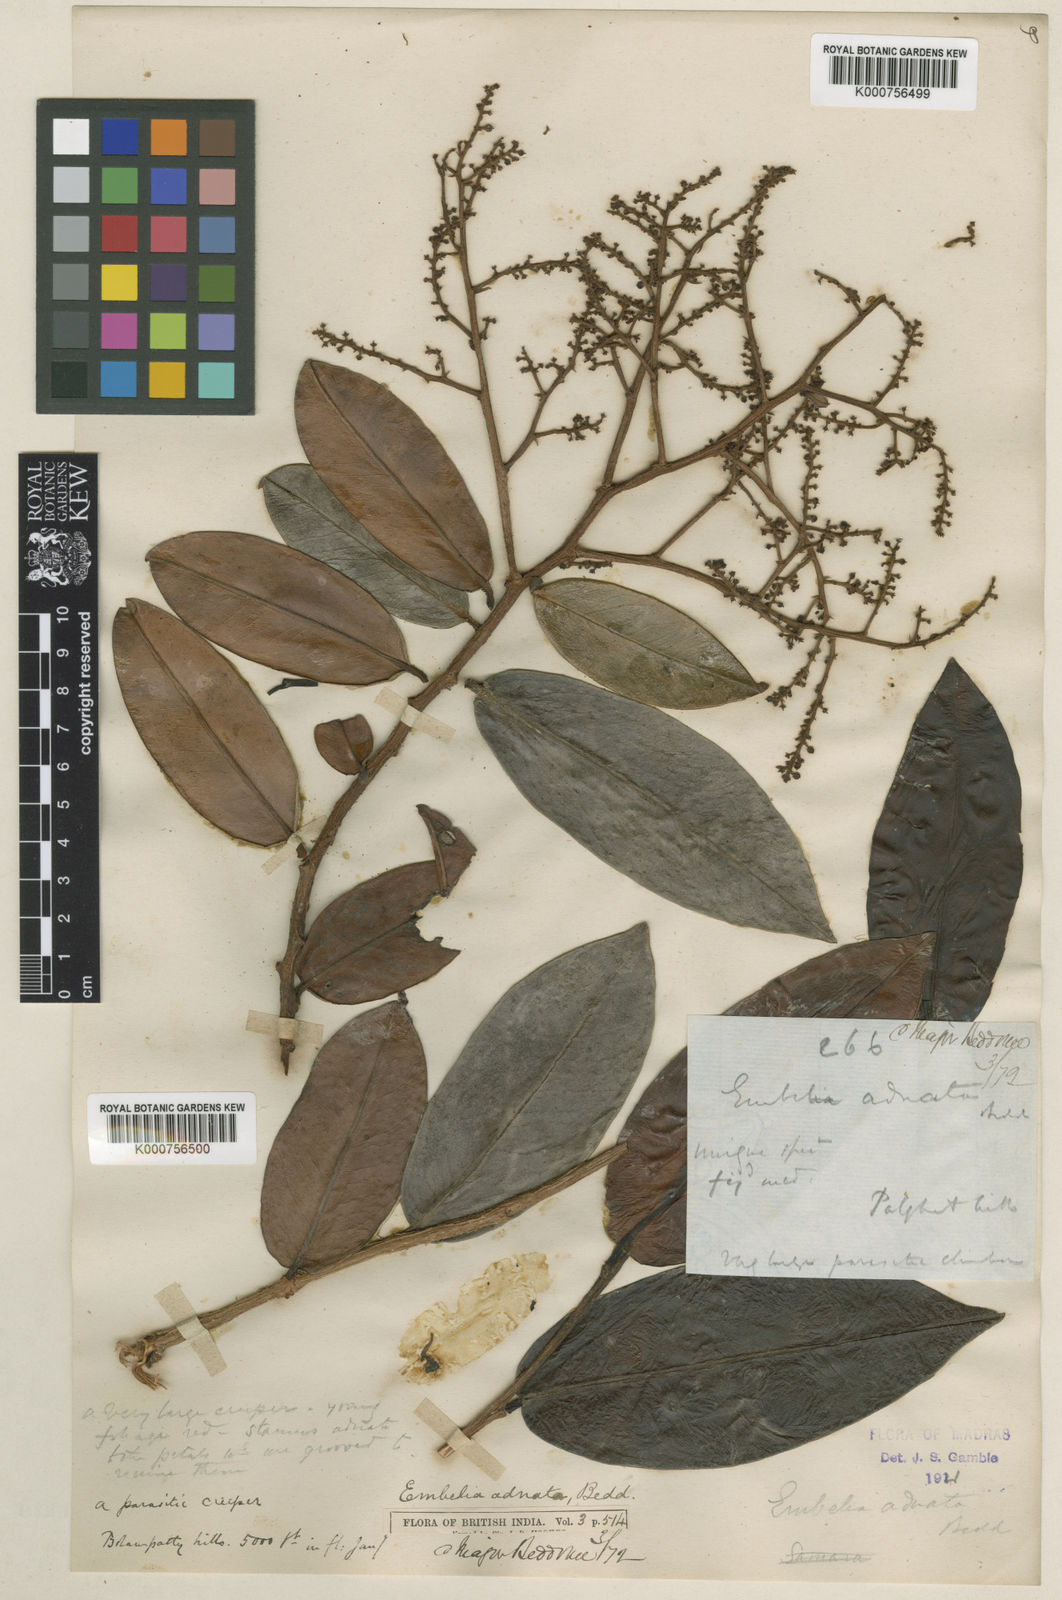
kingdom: Plantae
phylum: Tracheophyta
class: Magnoliopsida
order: Ericales
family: Primulaceae
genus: Embelia
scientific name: Embelia adnata
